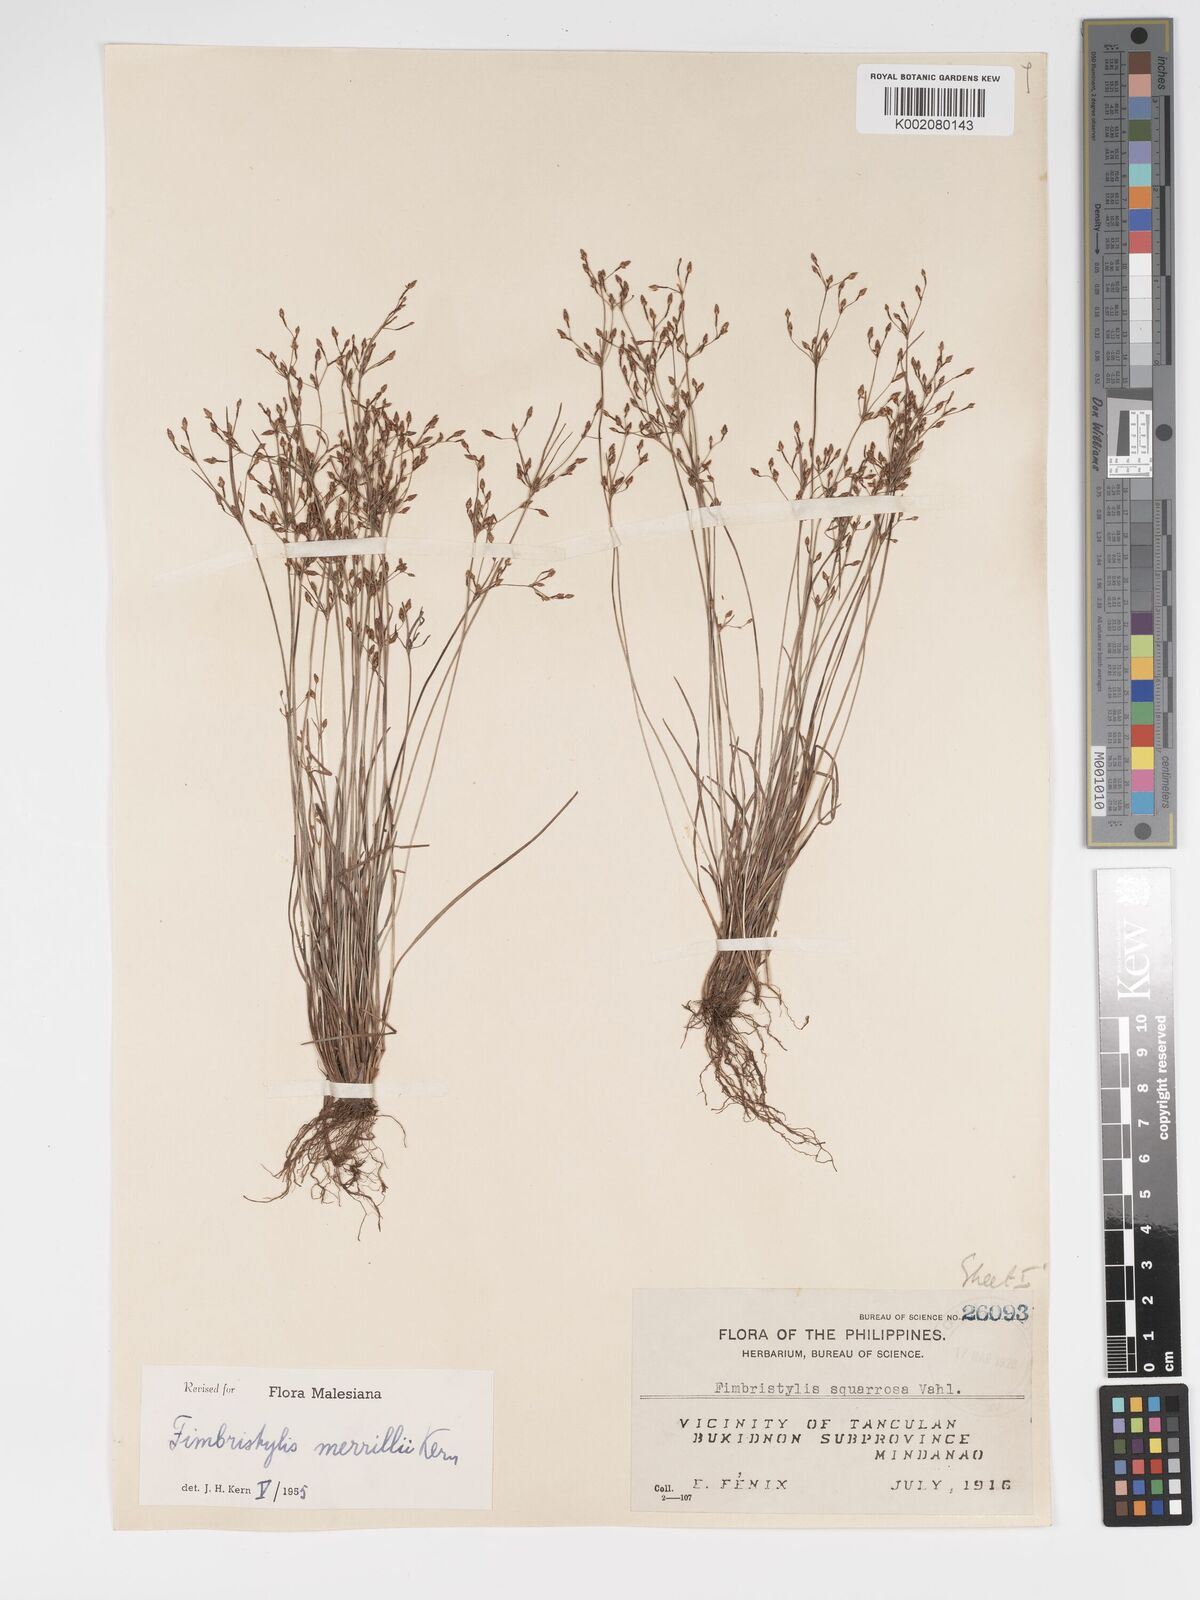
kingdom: Plantae
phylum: Tracheophyta
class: Liliopsida
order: Poales
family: Cyperaceae
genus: Fimbristylis
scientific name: Fimbristylis merrillii
